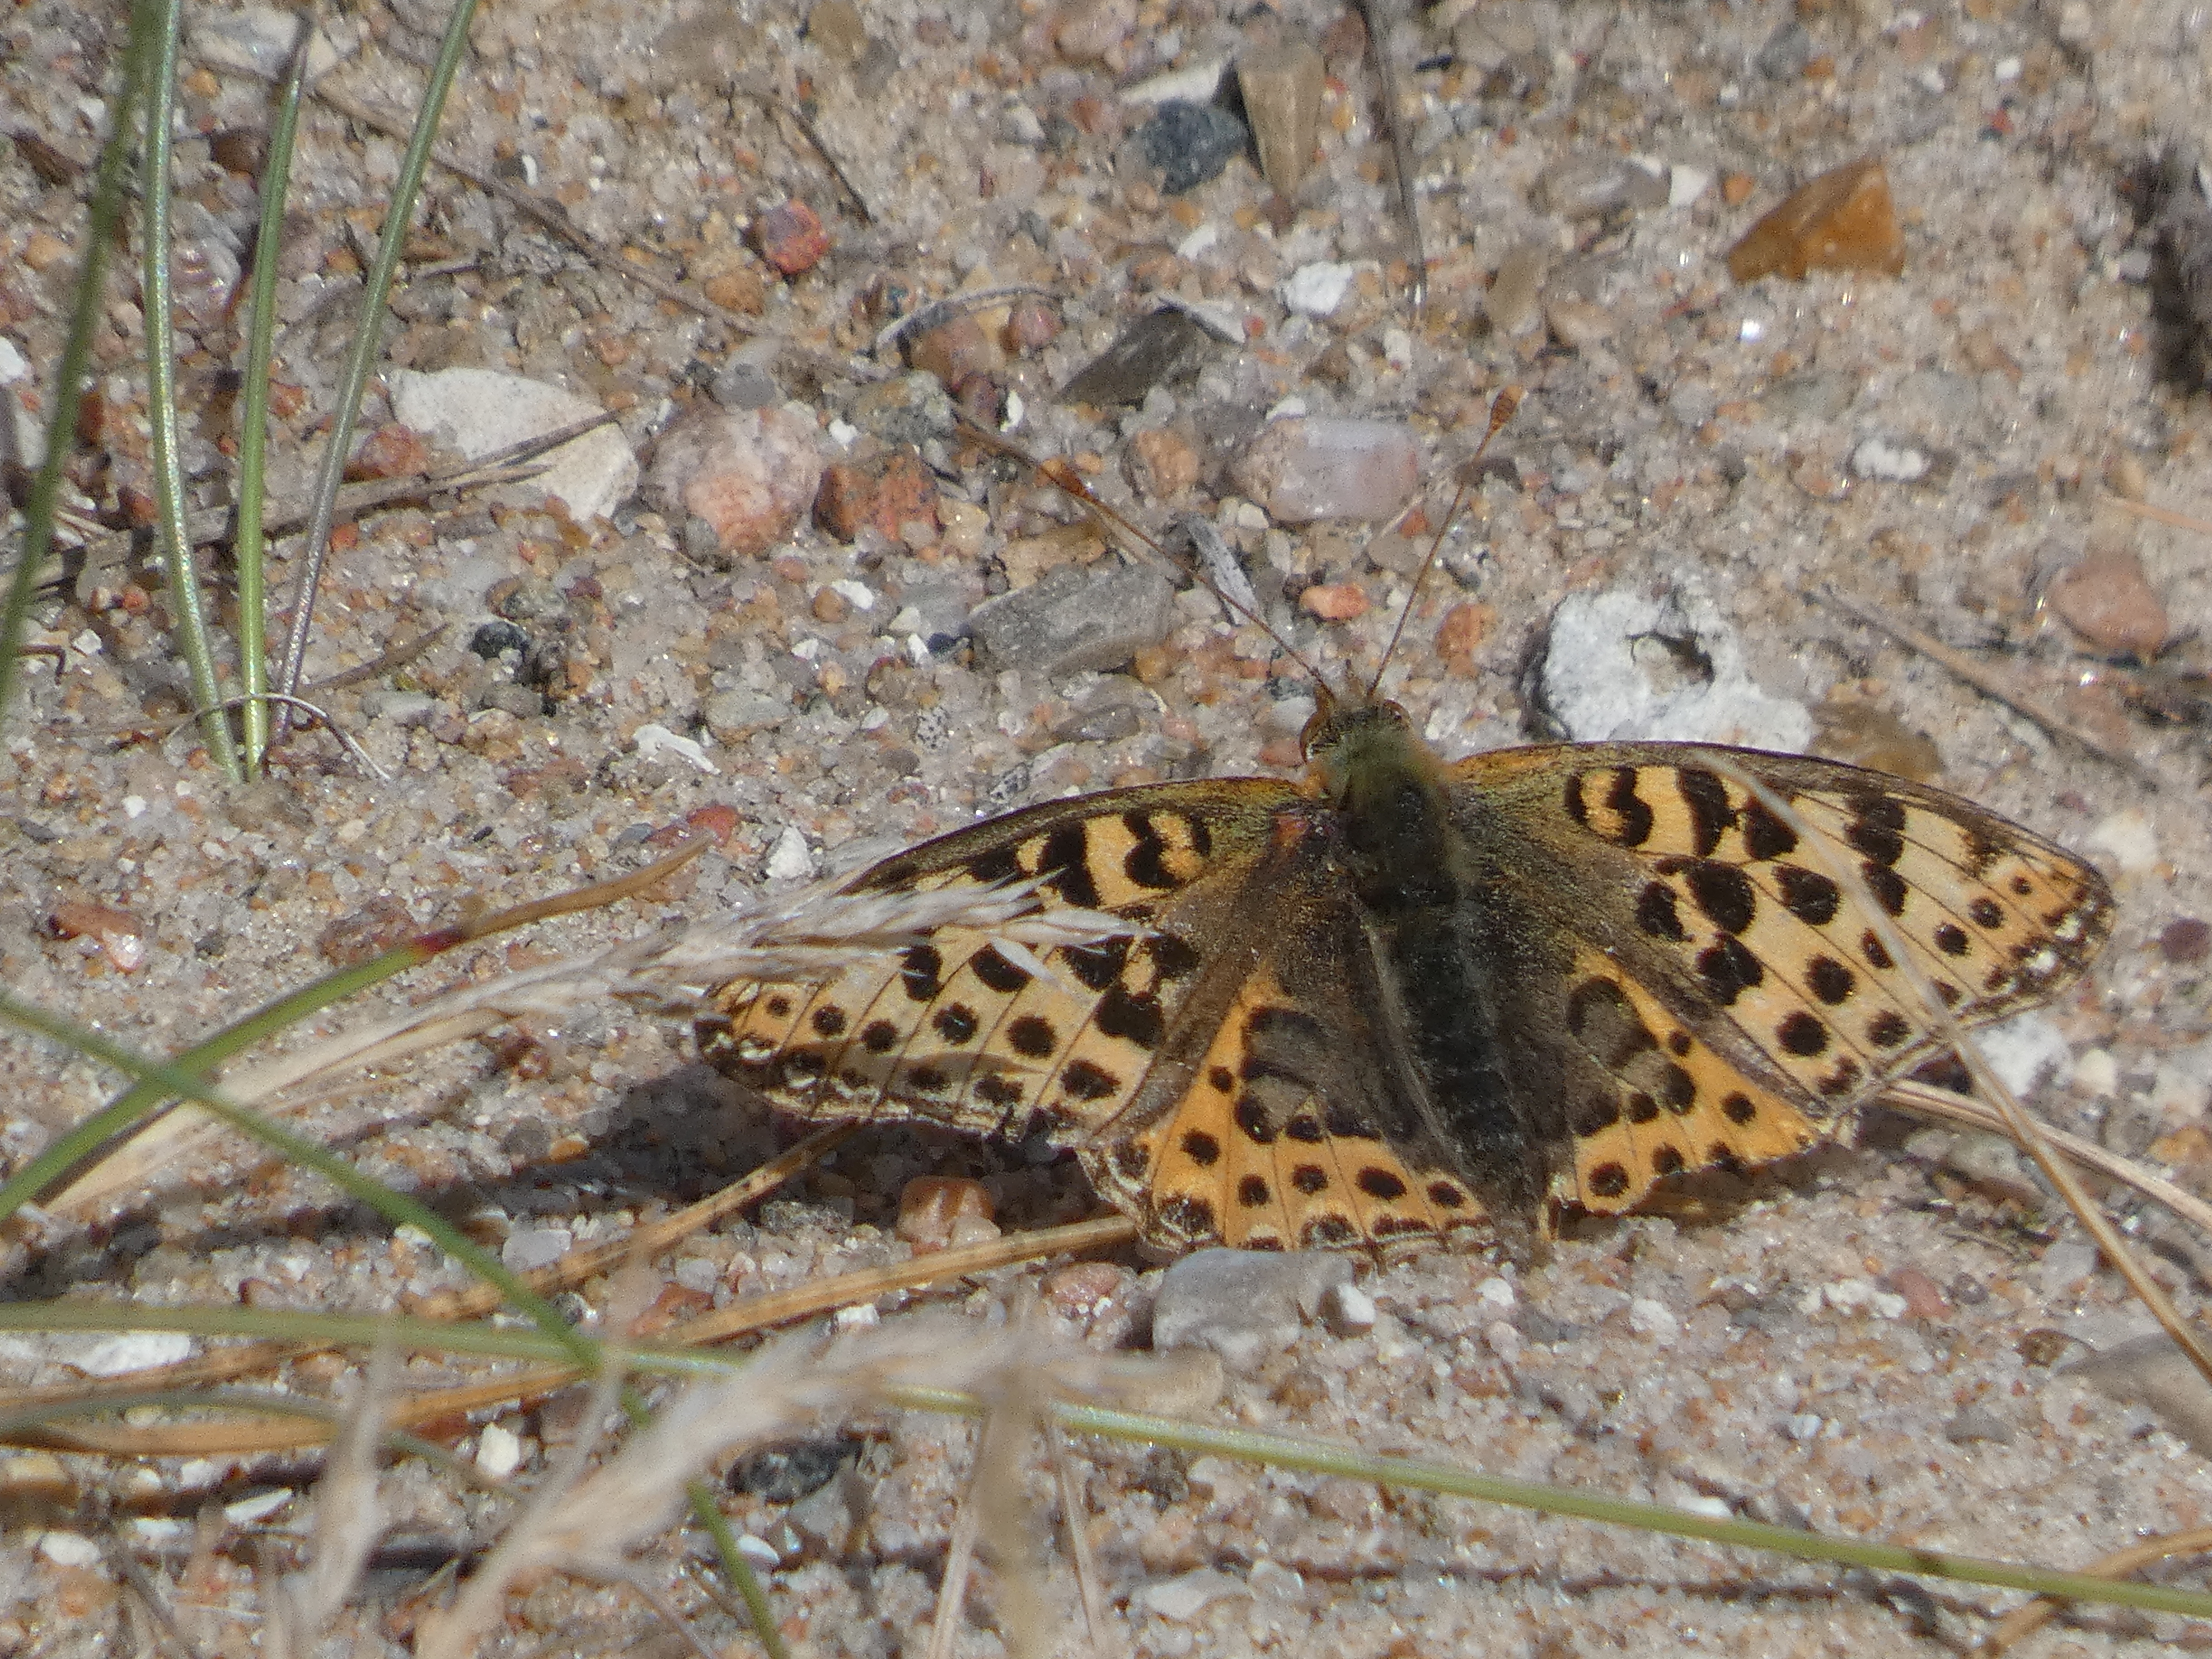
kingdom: Animalia
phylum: Arthropoda
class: Insecta
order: Lepidoptera
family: Nymphalidae
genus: Issoria
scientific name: Issoria lathonia
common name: Storplettet perlemorsommerfugl
